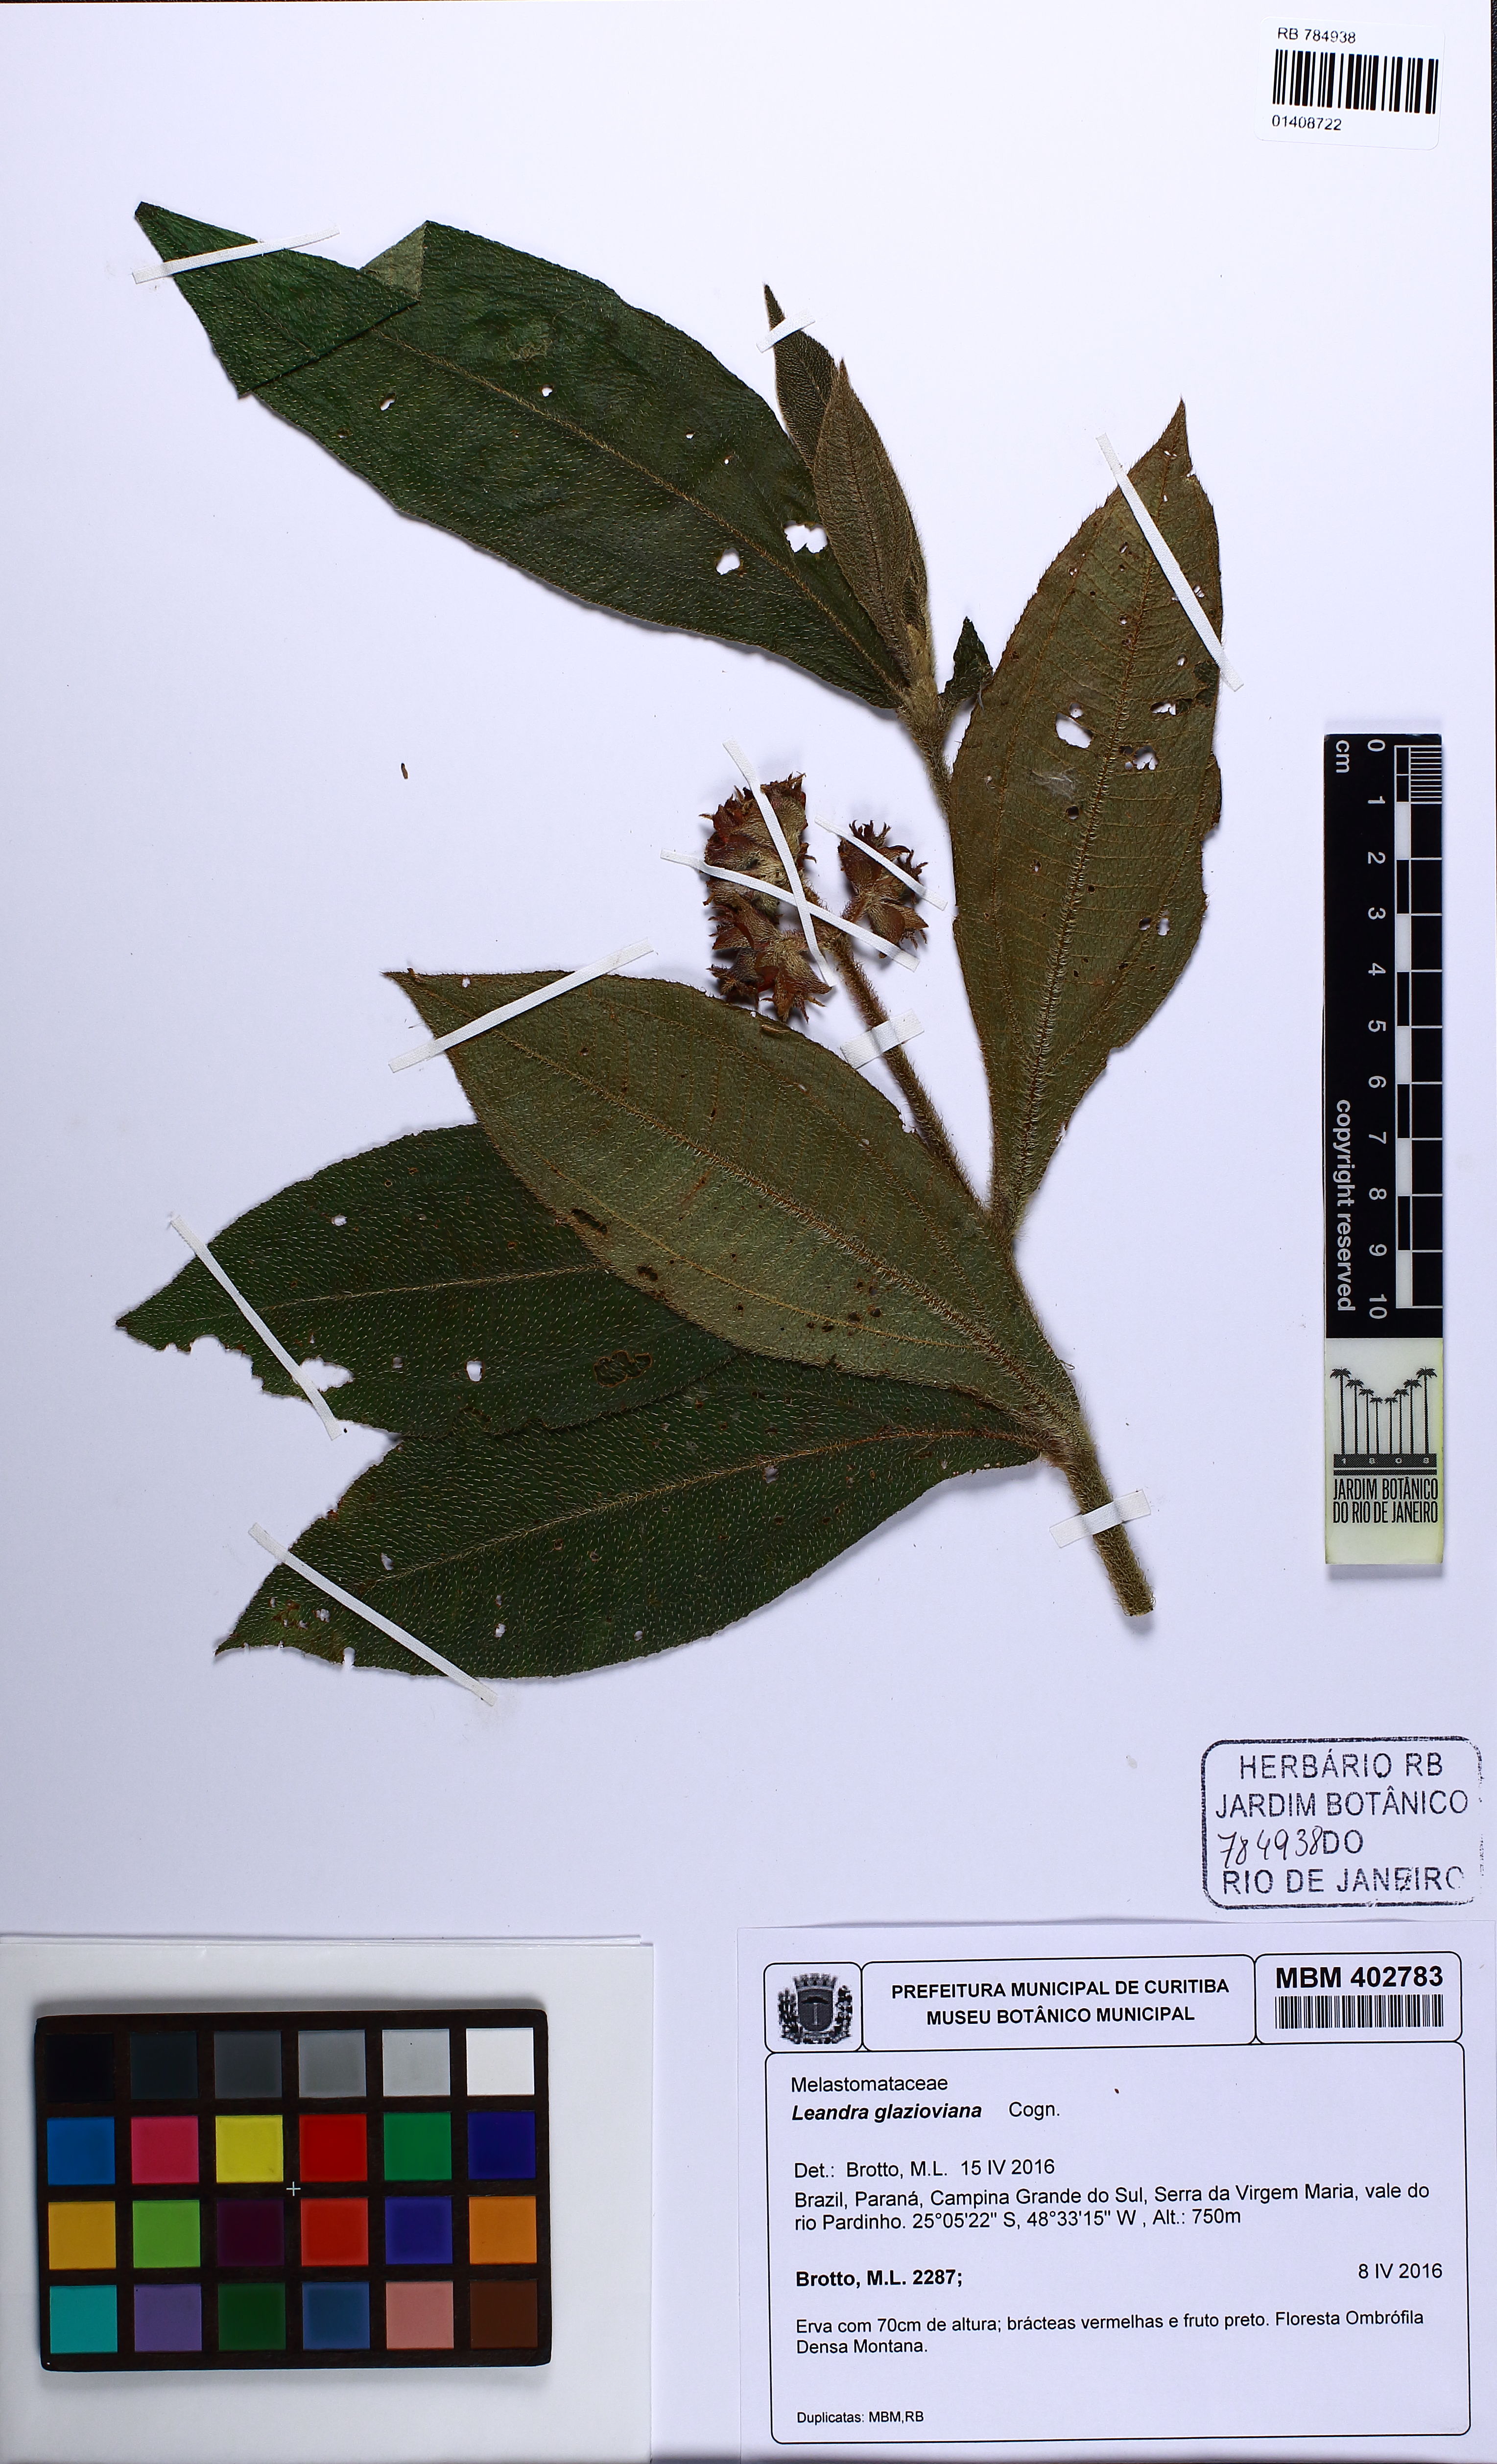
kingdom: Plantae
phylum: Tracheophyta
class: Magnoliopsida
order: Myrtales
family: Melastomataceae
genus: Miconia
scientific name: Miconia pubistyla
